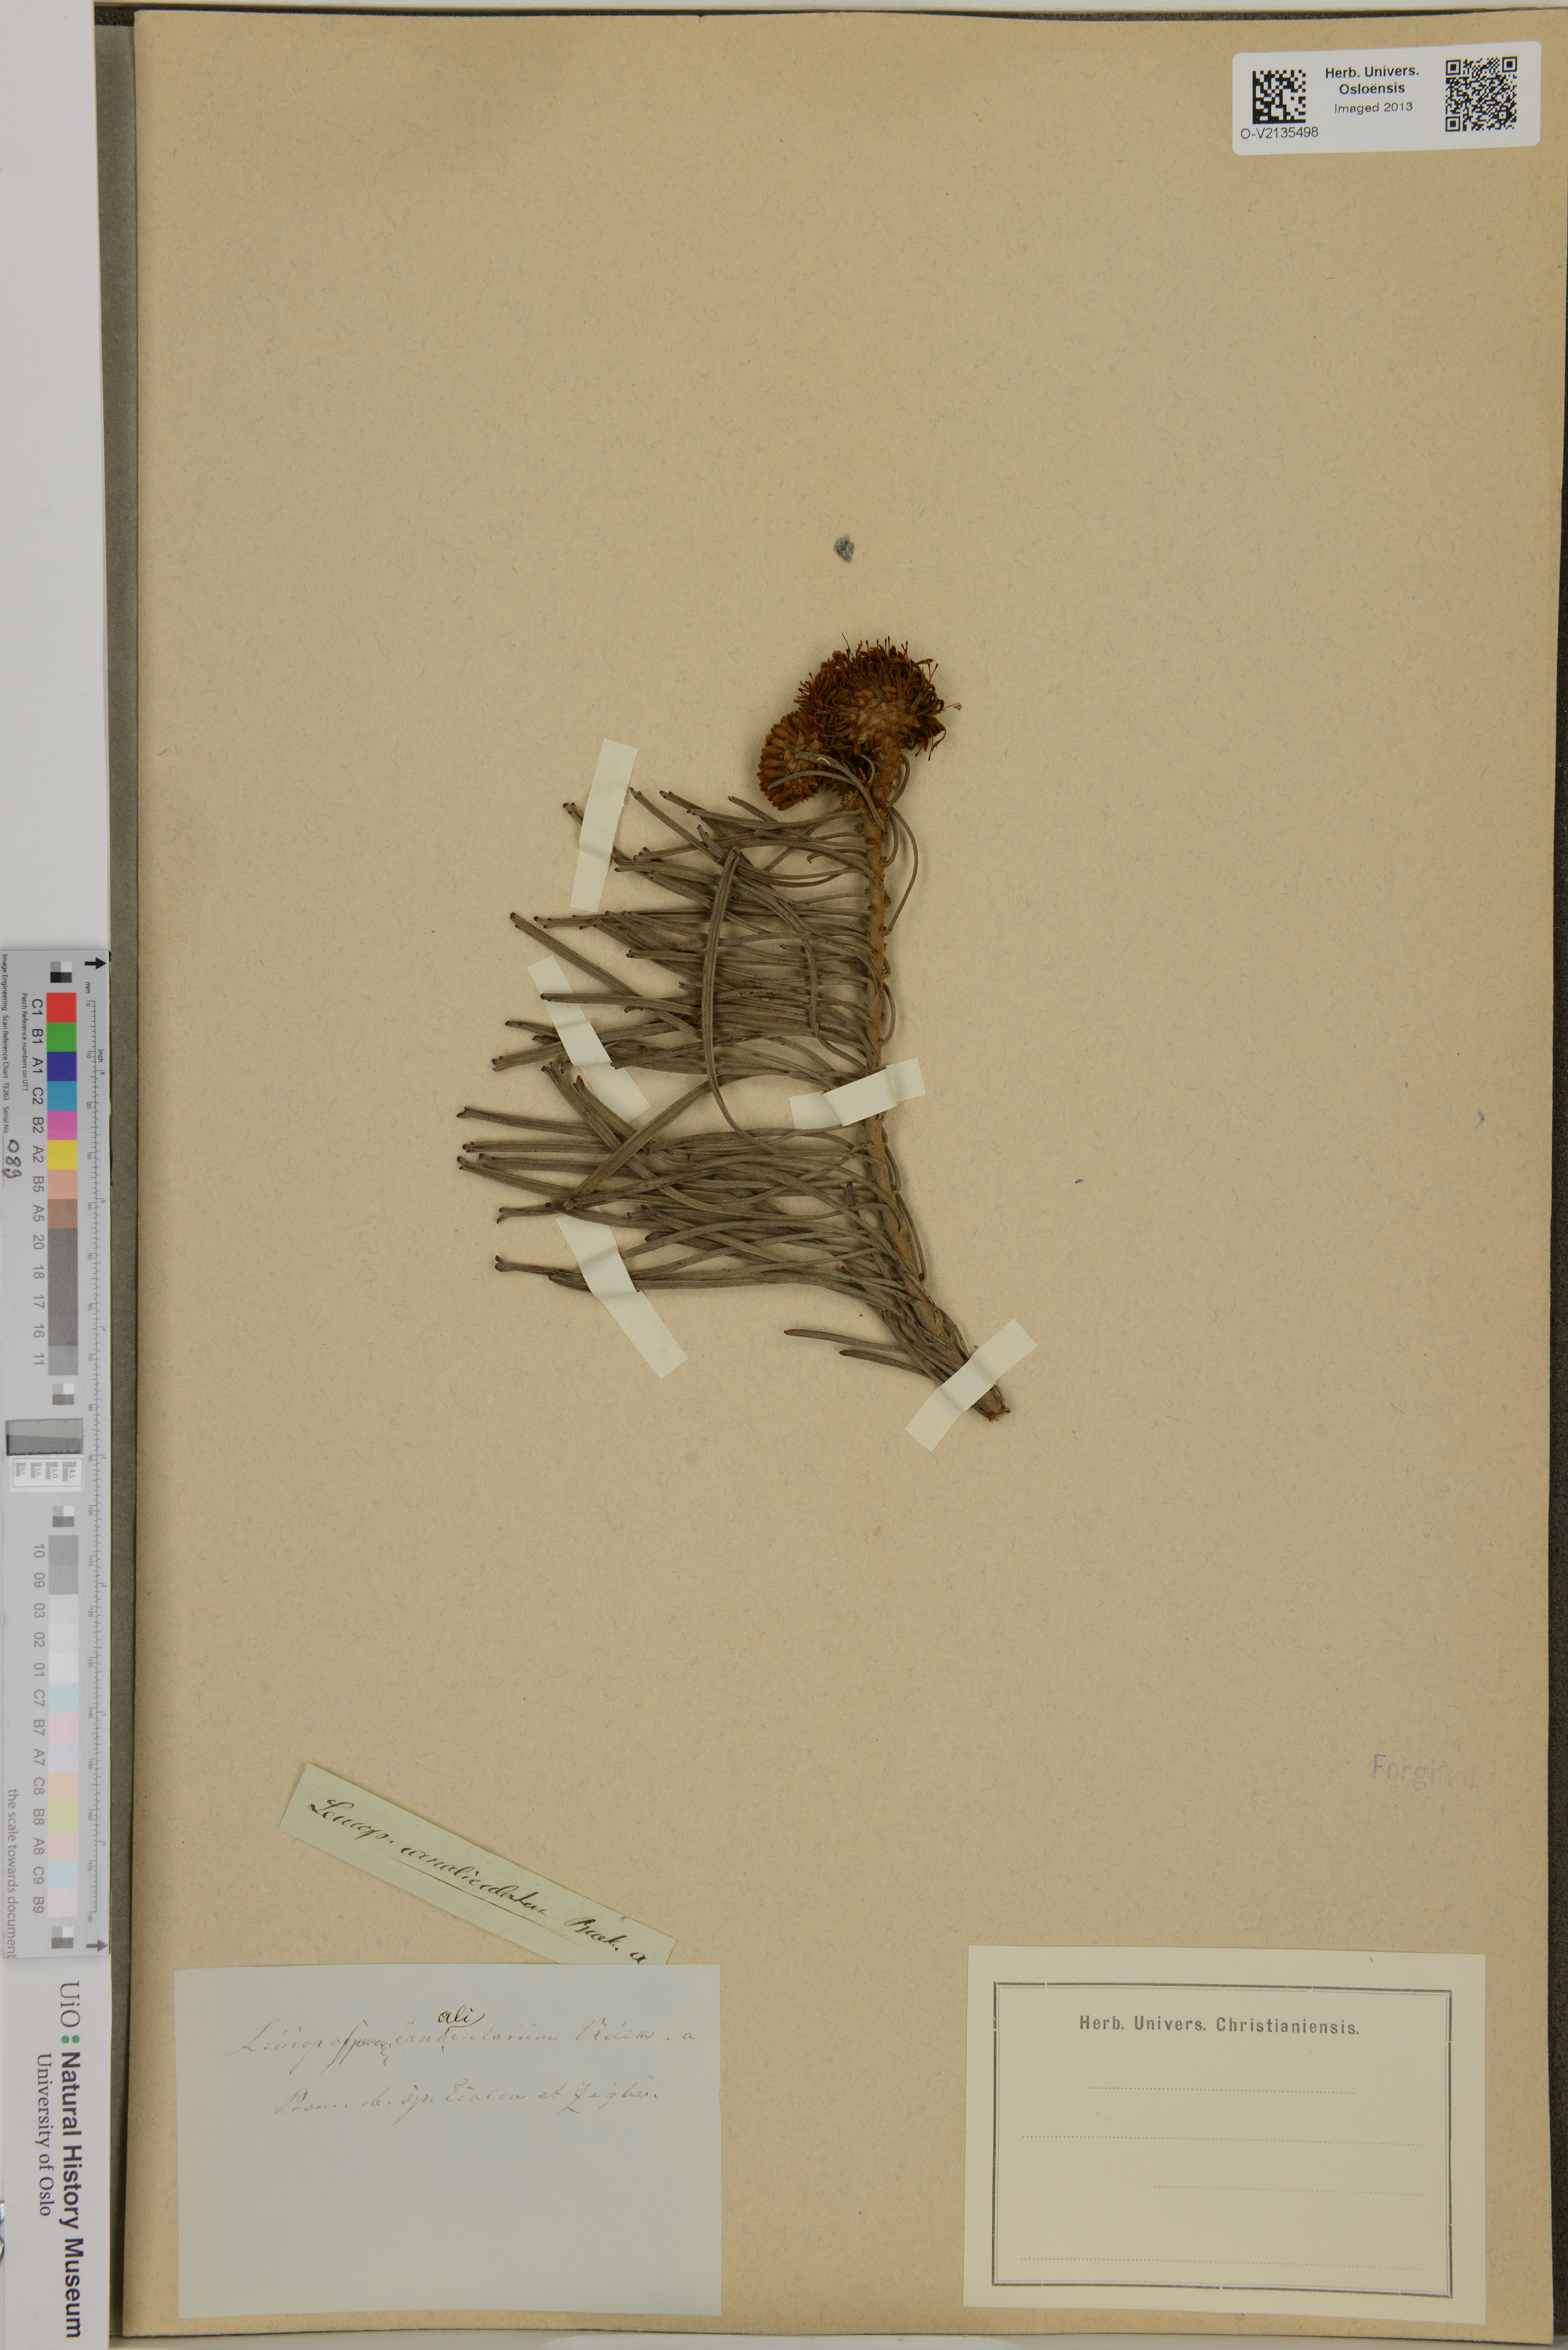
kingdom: Plantae
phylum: Tracheophyta
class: Magnoliopsida
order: Proteales
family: Proteaceae
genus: Leucospermum
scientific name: Leucospermum
